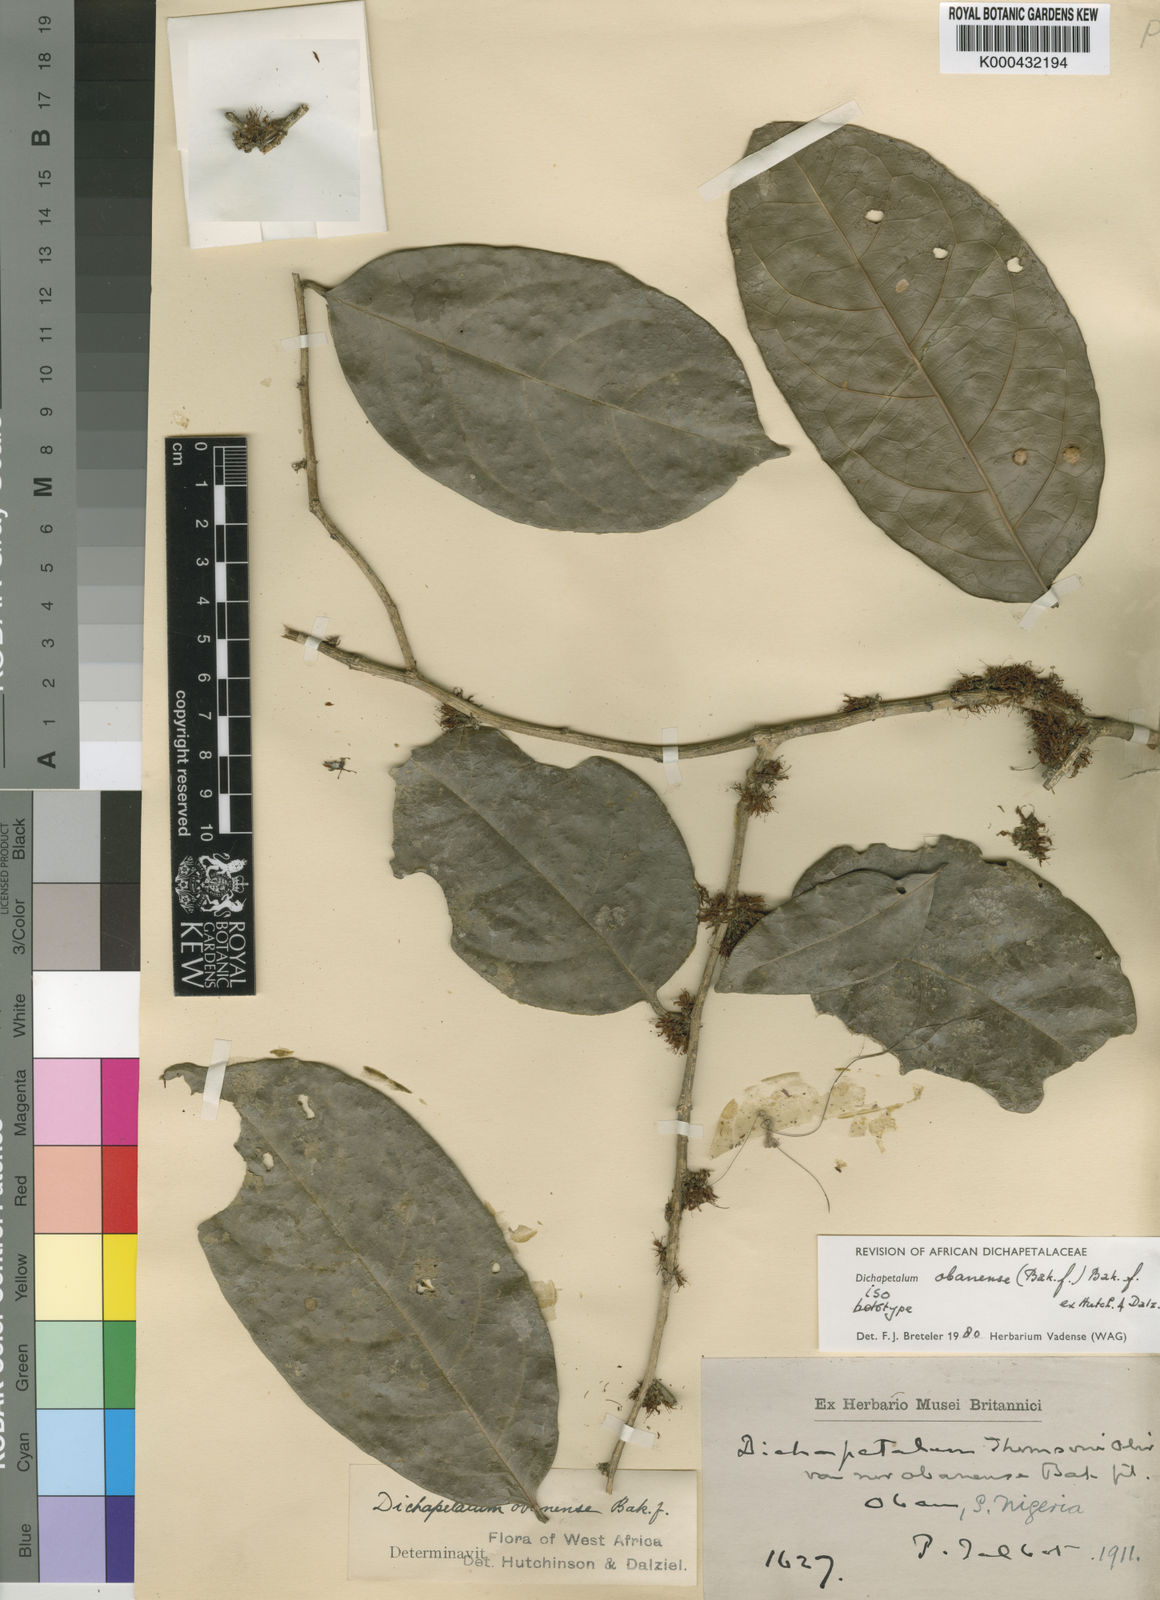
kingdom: Plantae
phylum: Tracheophyta
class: Magnoliopsida
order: Malpighiales
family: Dichapetalaceae
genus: Dichapetalum
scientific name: Dichapetalum obanense
